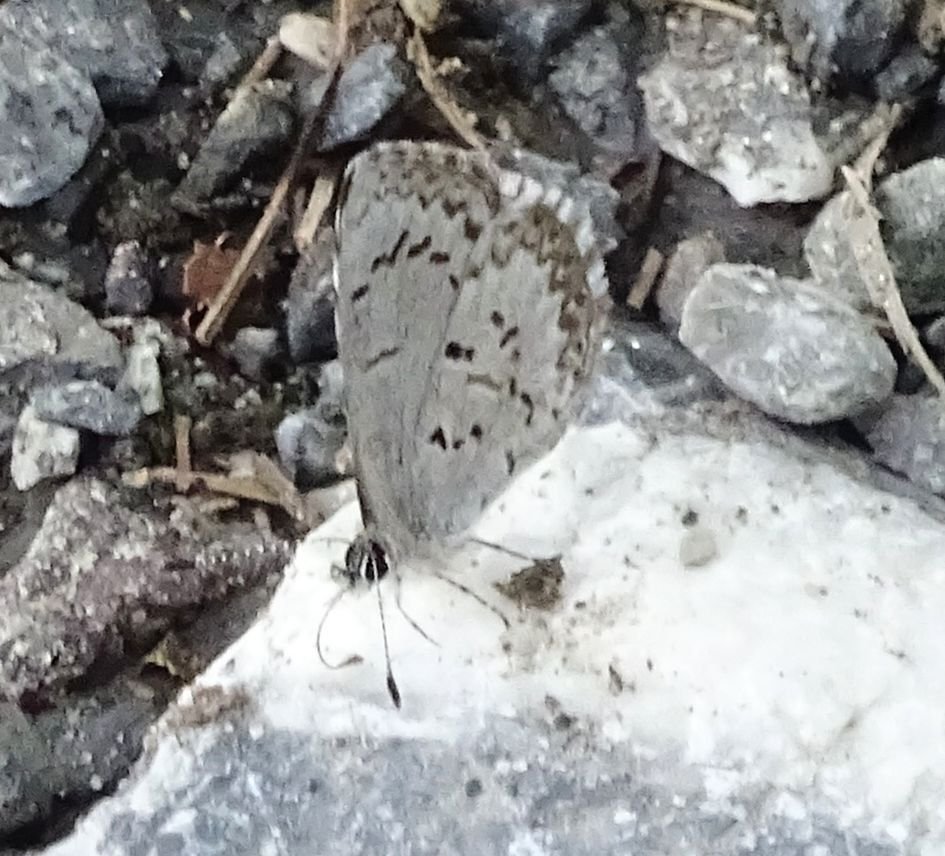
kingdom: Animalia
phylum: Arthropoda
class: Insecta
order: Lepidoptera
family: Lycaenidae
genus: Celastrina
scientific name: Celastrina lucia
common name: Northern Spring Azure
